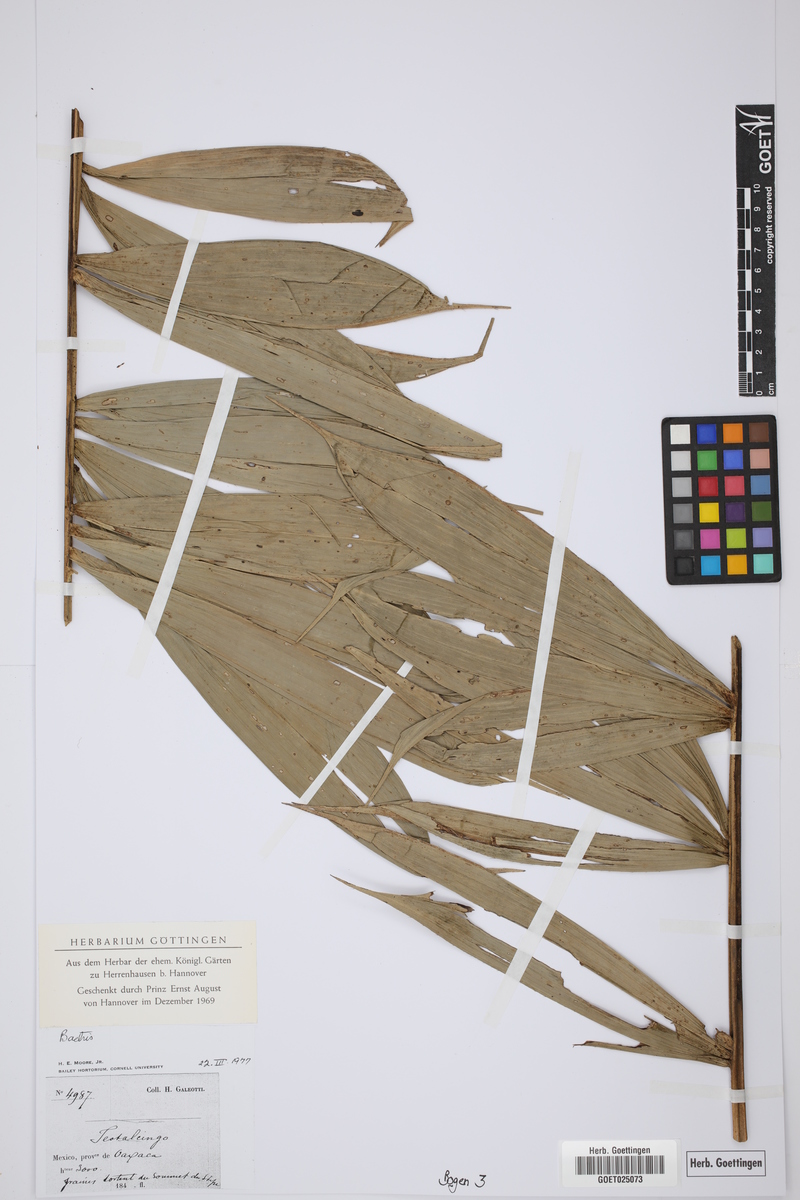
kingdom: Plantae
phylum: Tracheophyta
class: Liliopsida
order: Arecales
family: Arecaceae
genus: Bactris
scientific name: Bactris
